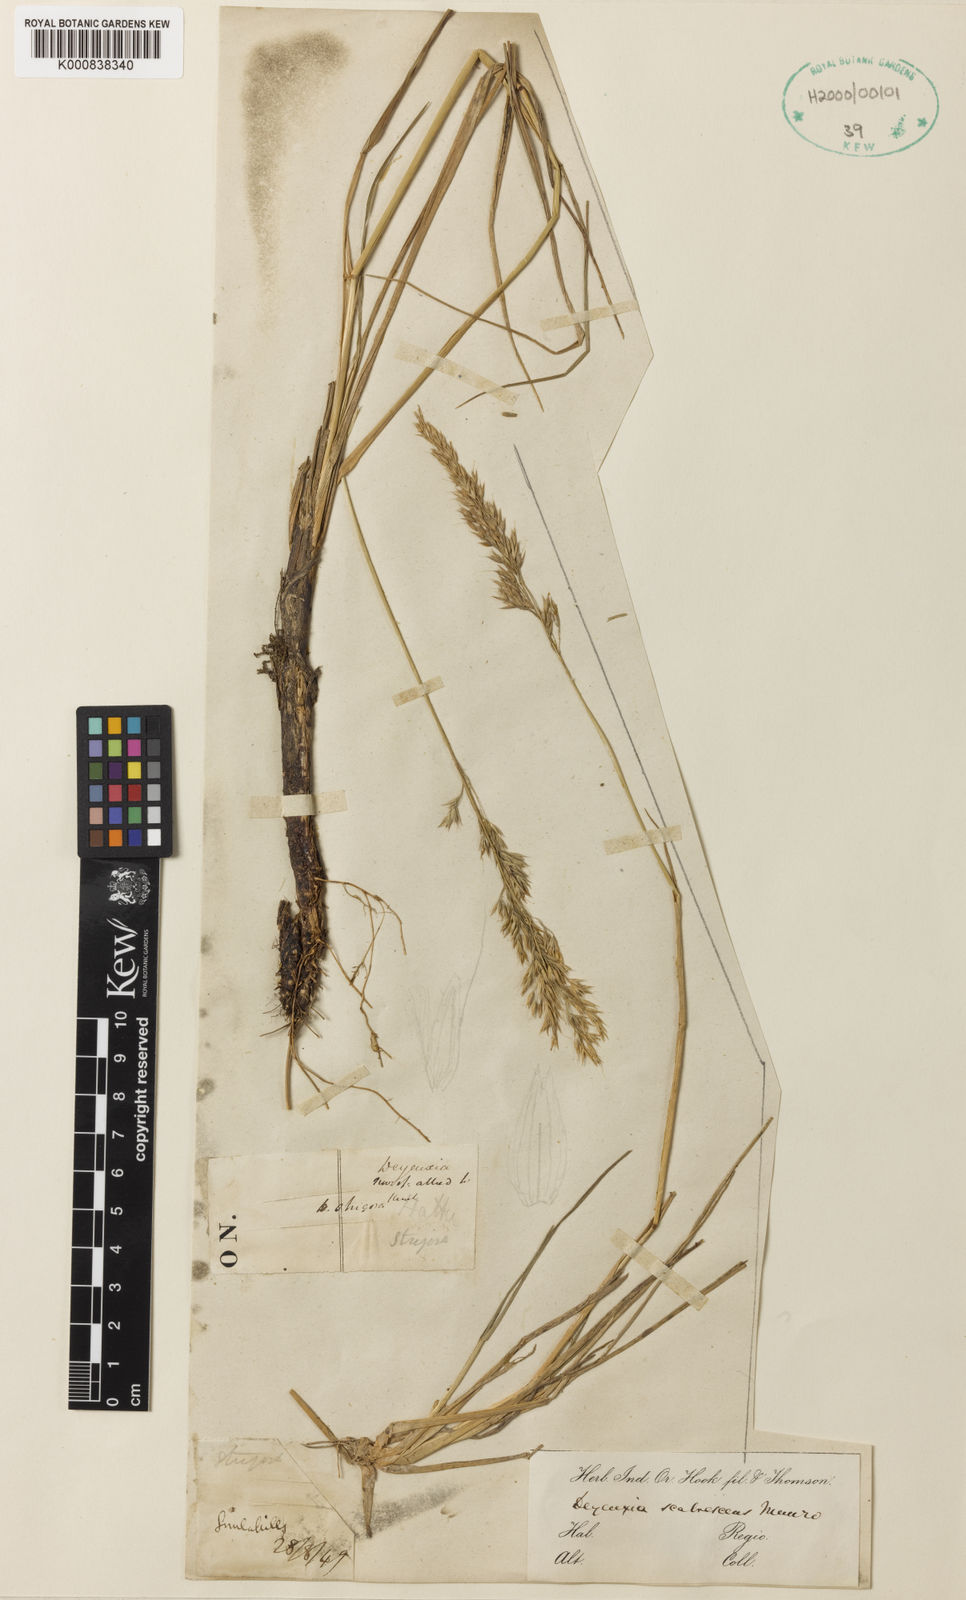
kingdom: Plantae
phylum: Tracheophyta
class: Liliopsida
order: Poales
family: Poaceae
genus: Calamagrostis
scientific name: Calamagrostis scabrescens
